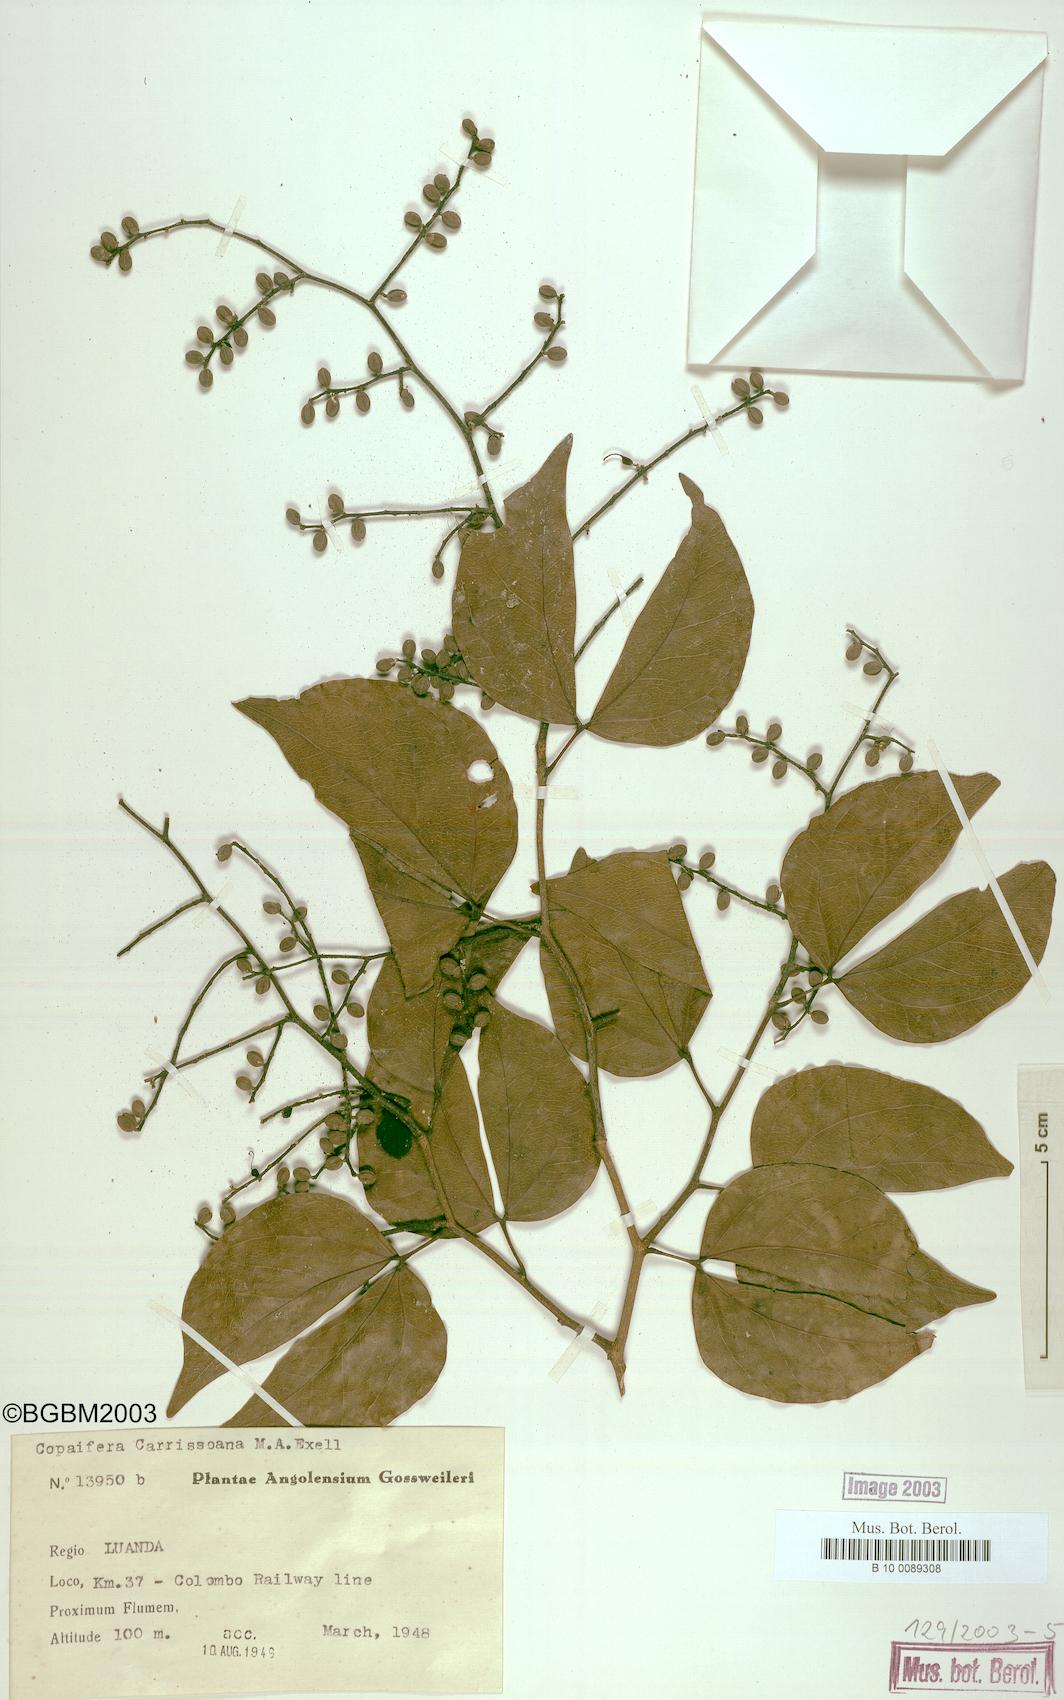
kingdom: Plantae
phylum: Tracheophyta
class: Magnoliopsida
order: Fabales
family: Fabaceae
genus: Copaifera
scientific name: Copaifera carrissoana
